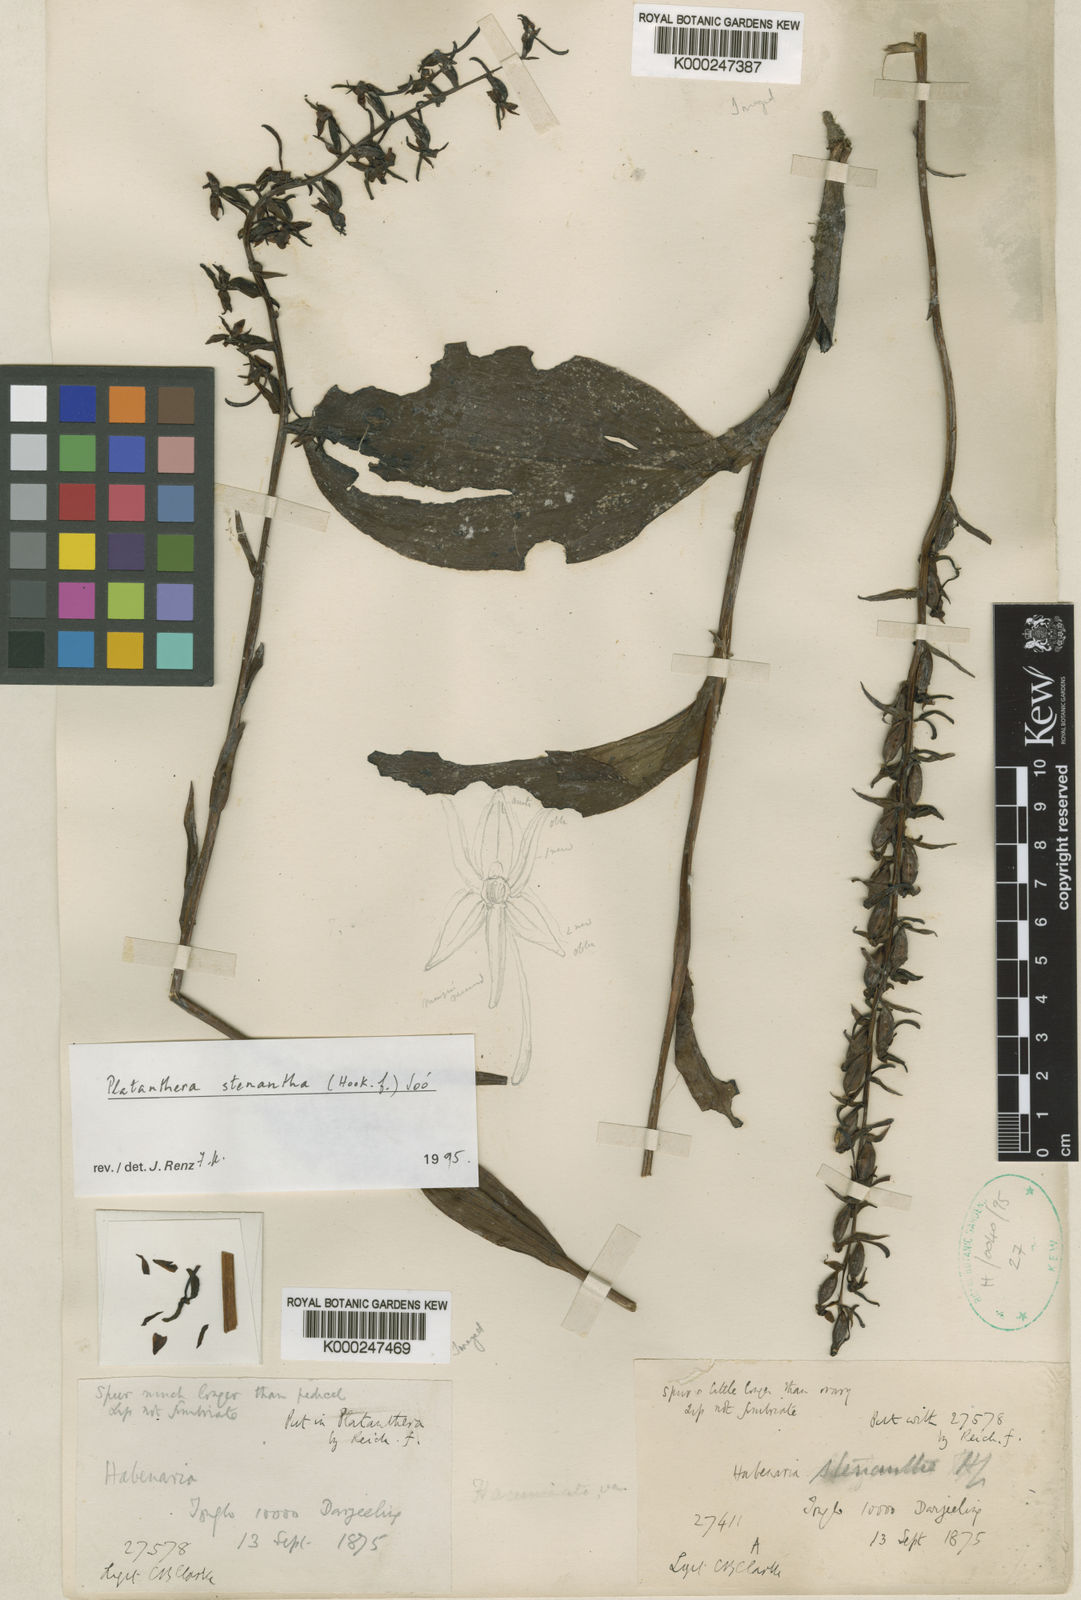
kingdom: Plantae
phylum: Tracheophyta
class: Liliopsida
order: Asparagales
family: Orchidaceae
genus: Platanthera
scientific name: Platanthera
